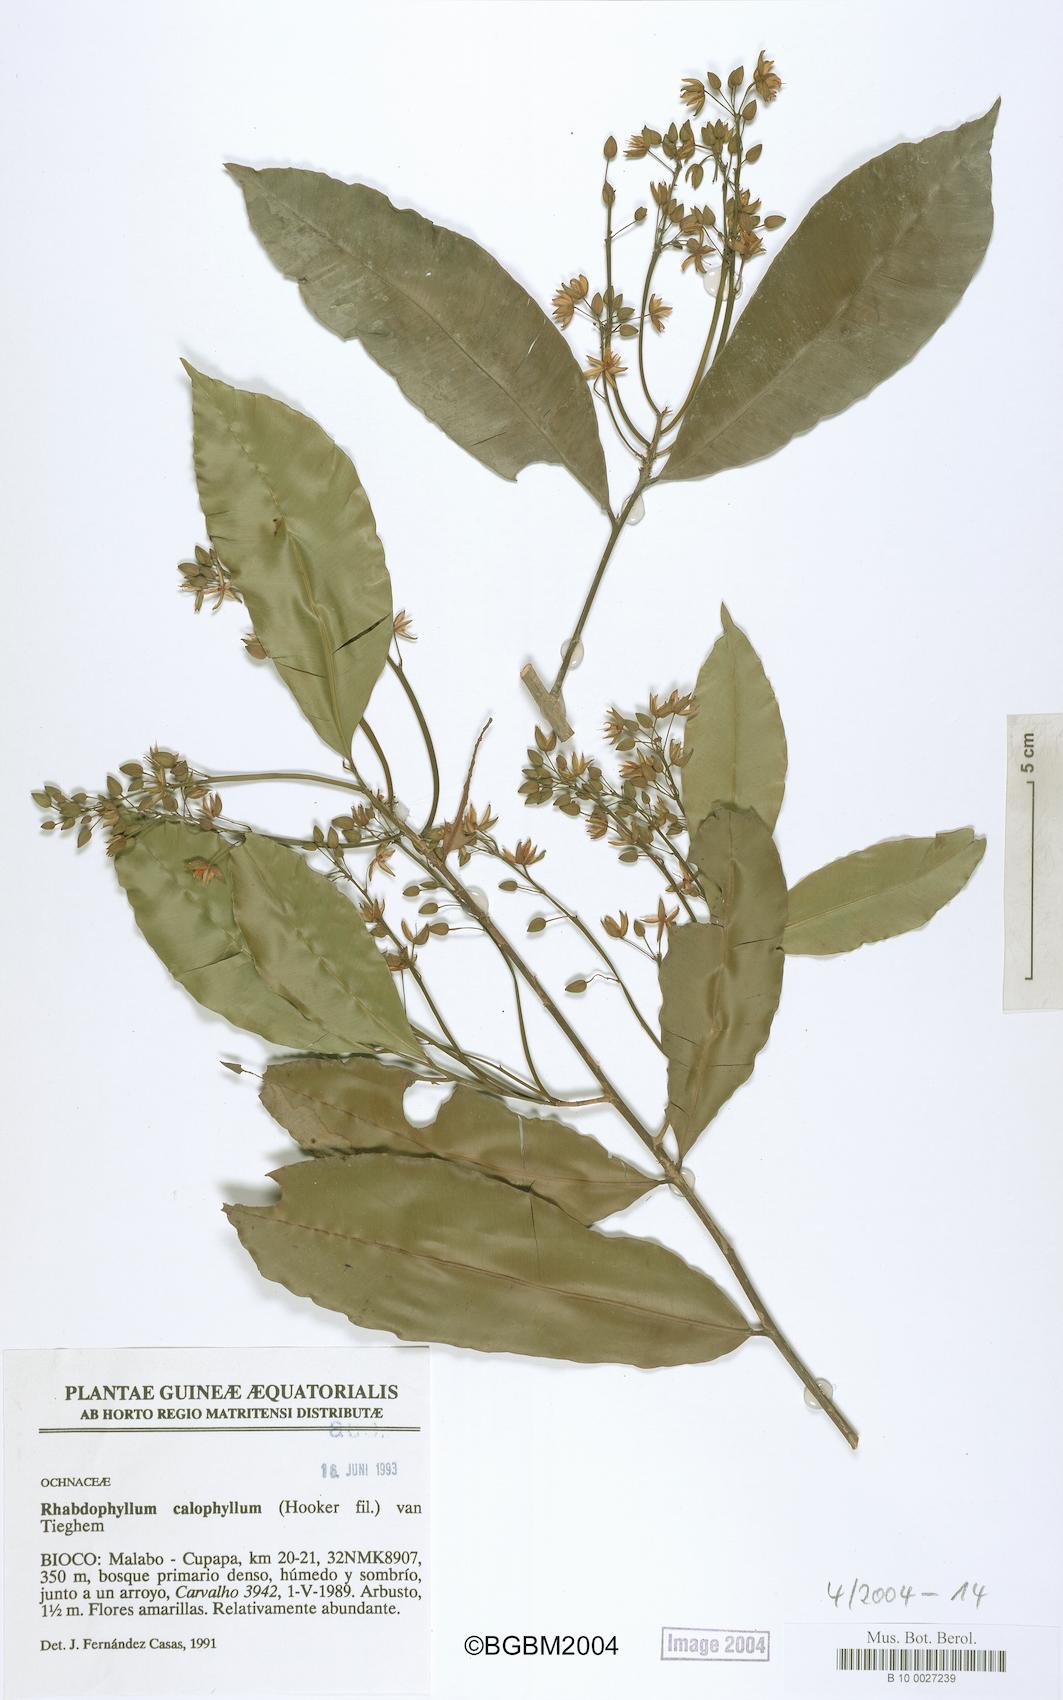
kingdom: Plantae
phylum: Tracheophyta
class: Magnoliopsida
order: Malpighiales
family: Ochnaceae
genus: Rhabdophyllum
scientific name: Rhabdophyllum calophyllum
